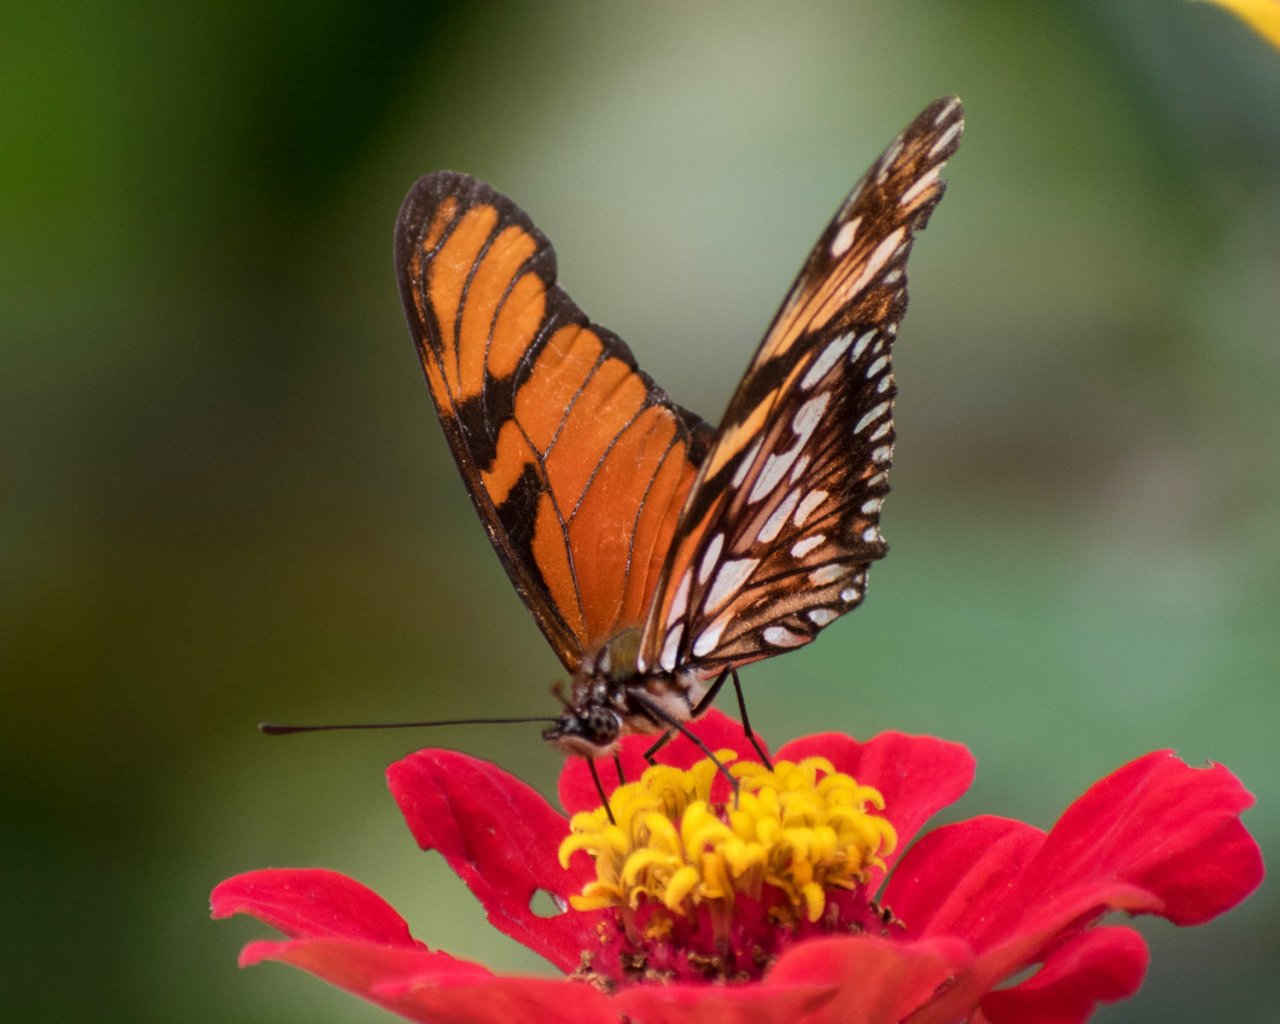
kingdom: Animalia
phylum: Arthropoda
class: Insecta
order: Lepidoptera
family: Nymphalidae
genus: Dione
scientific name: Dione juno
